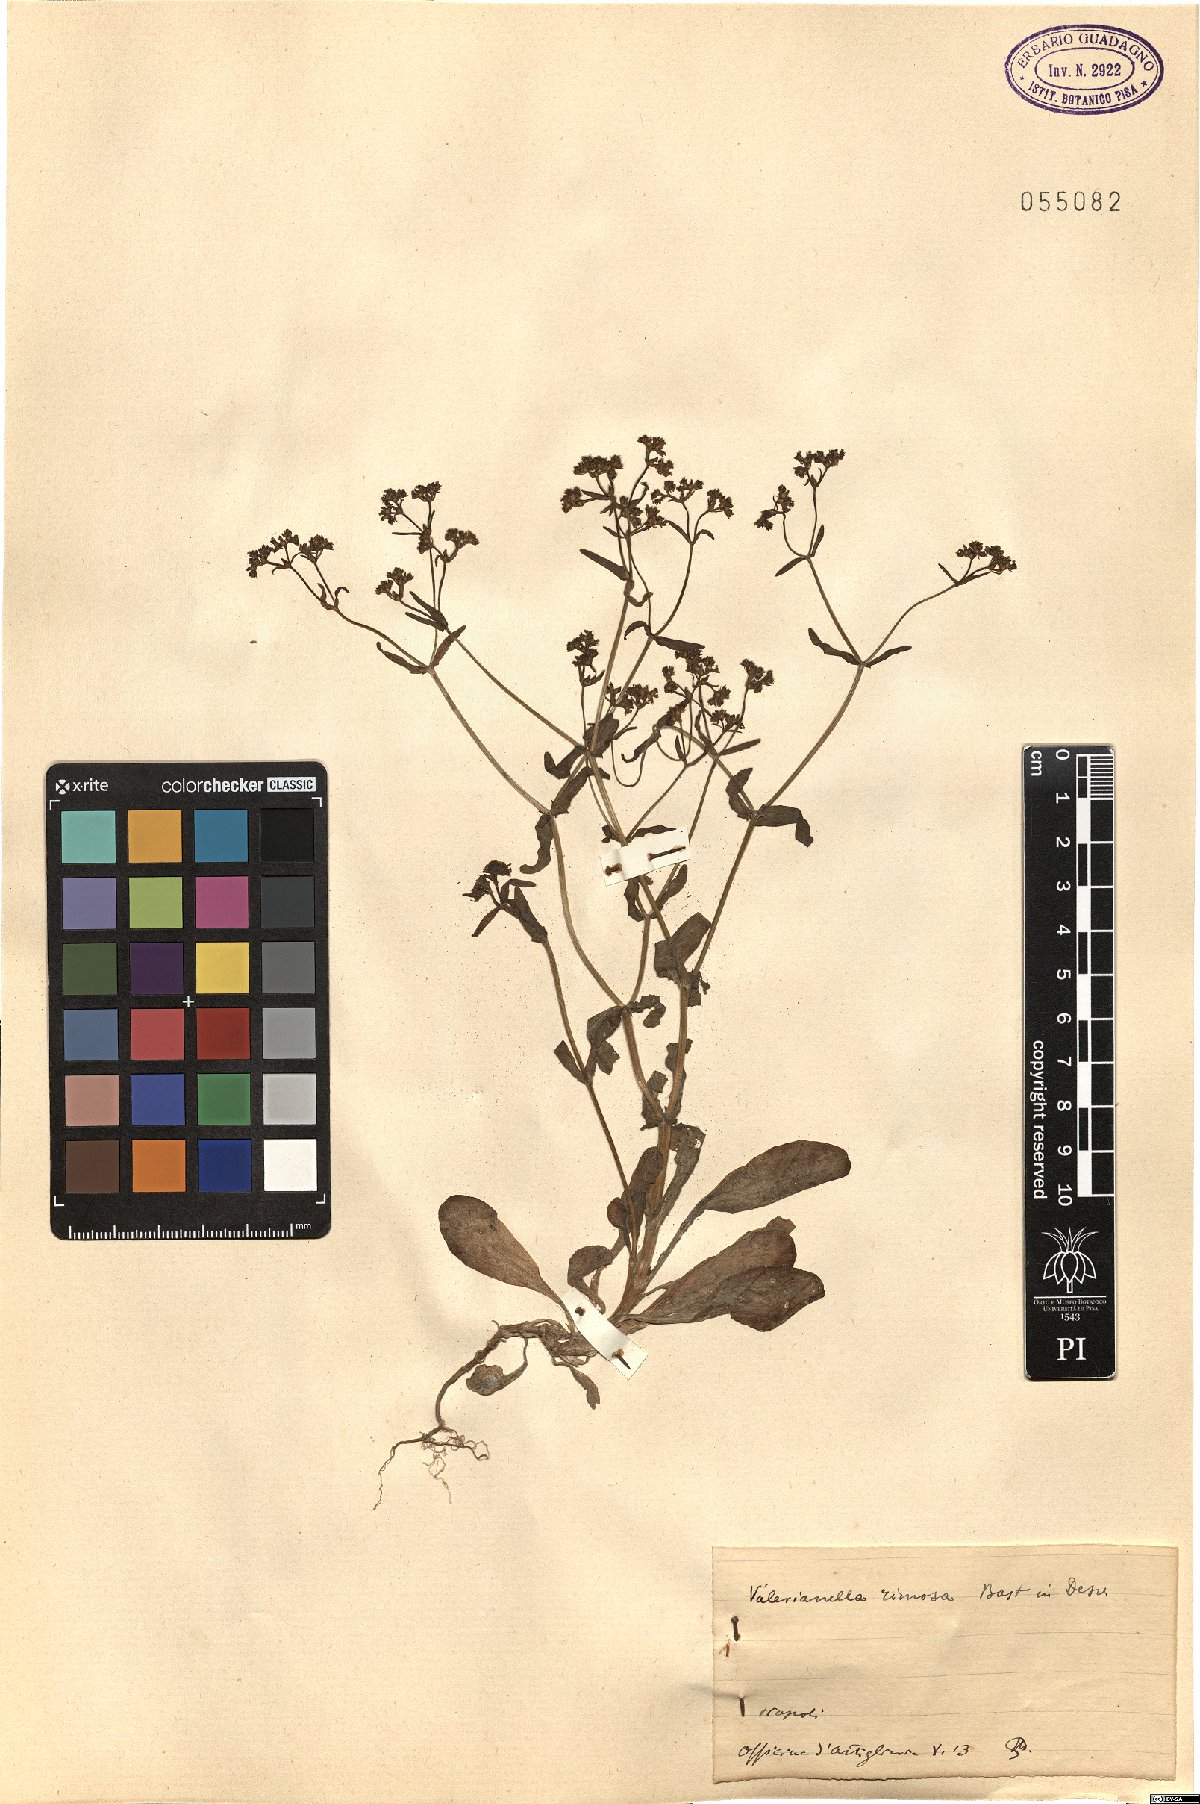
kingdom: Plantae
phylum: Tracheophyta
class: Magnoliopsida
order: Dipsacales
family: Caprifoliaceae
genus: Valerianella
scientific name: Valerianella rimosa
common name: Broad-fruited cornsalad
